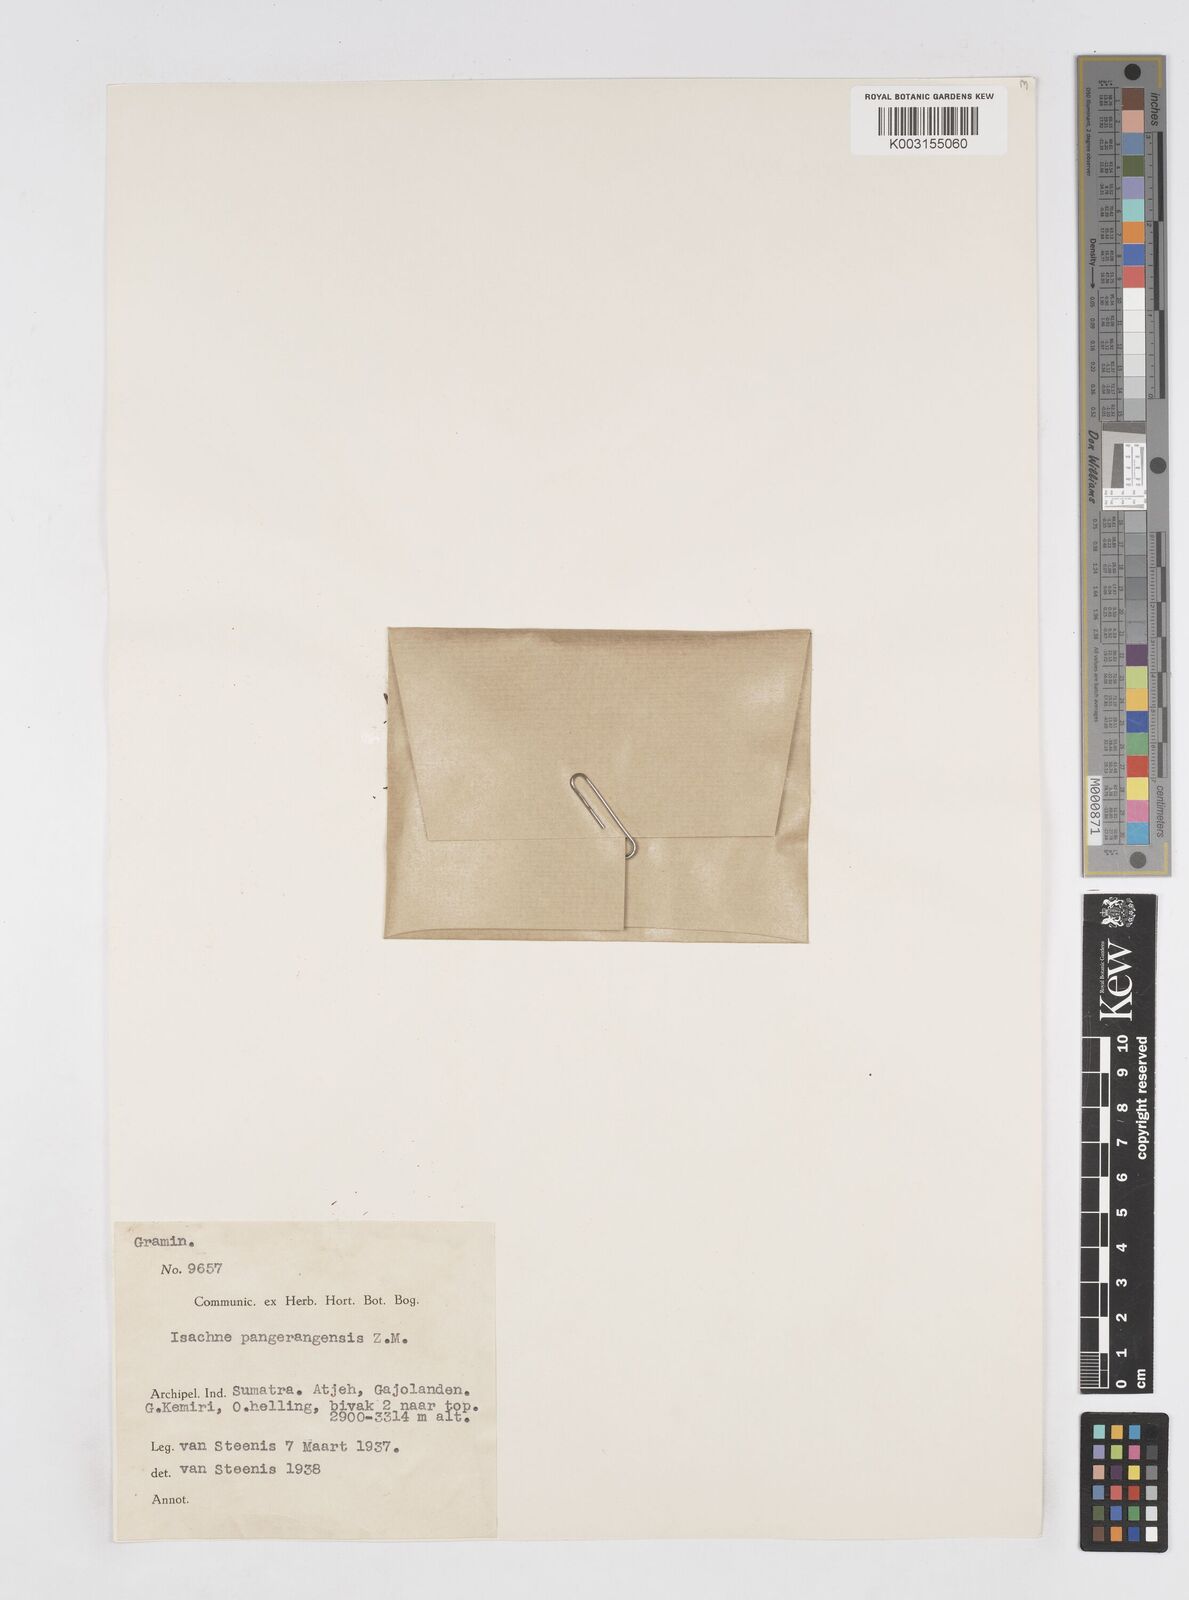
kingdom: Plantae
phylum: Tracheophyta
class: Liliopsida
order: Poales
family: Poaceae
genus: Isachne
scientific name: Isachne pangerangensis
